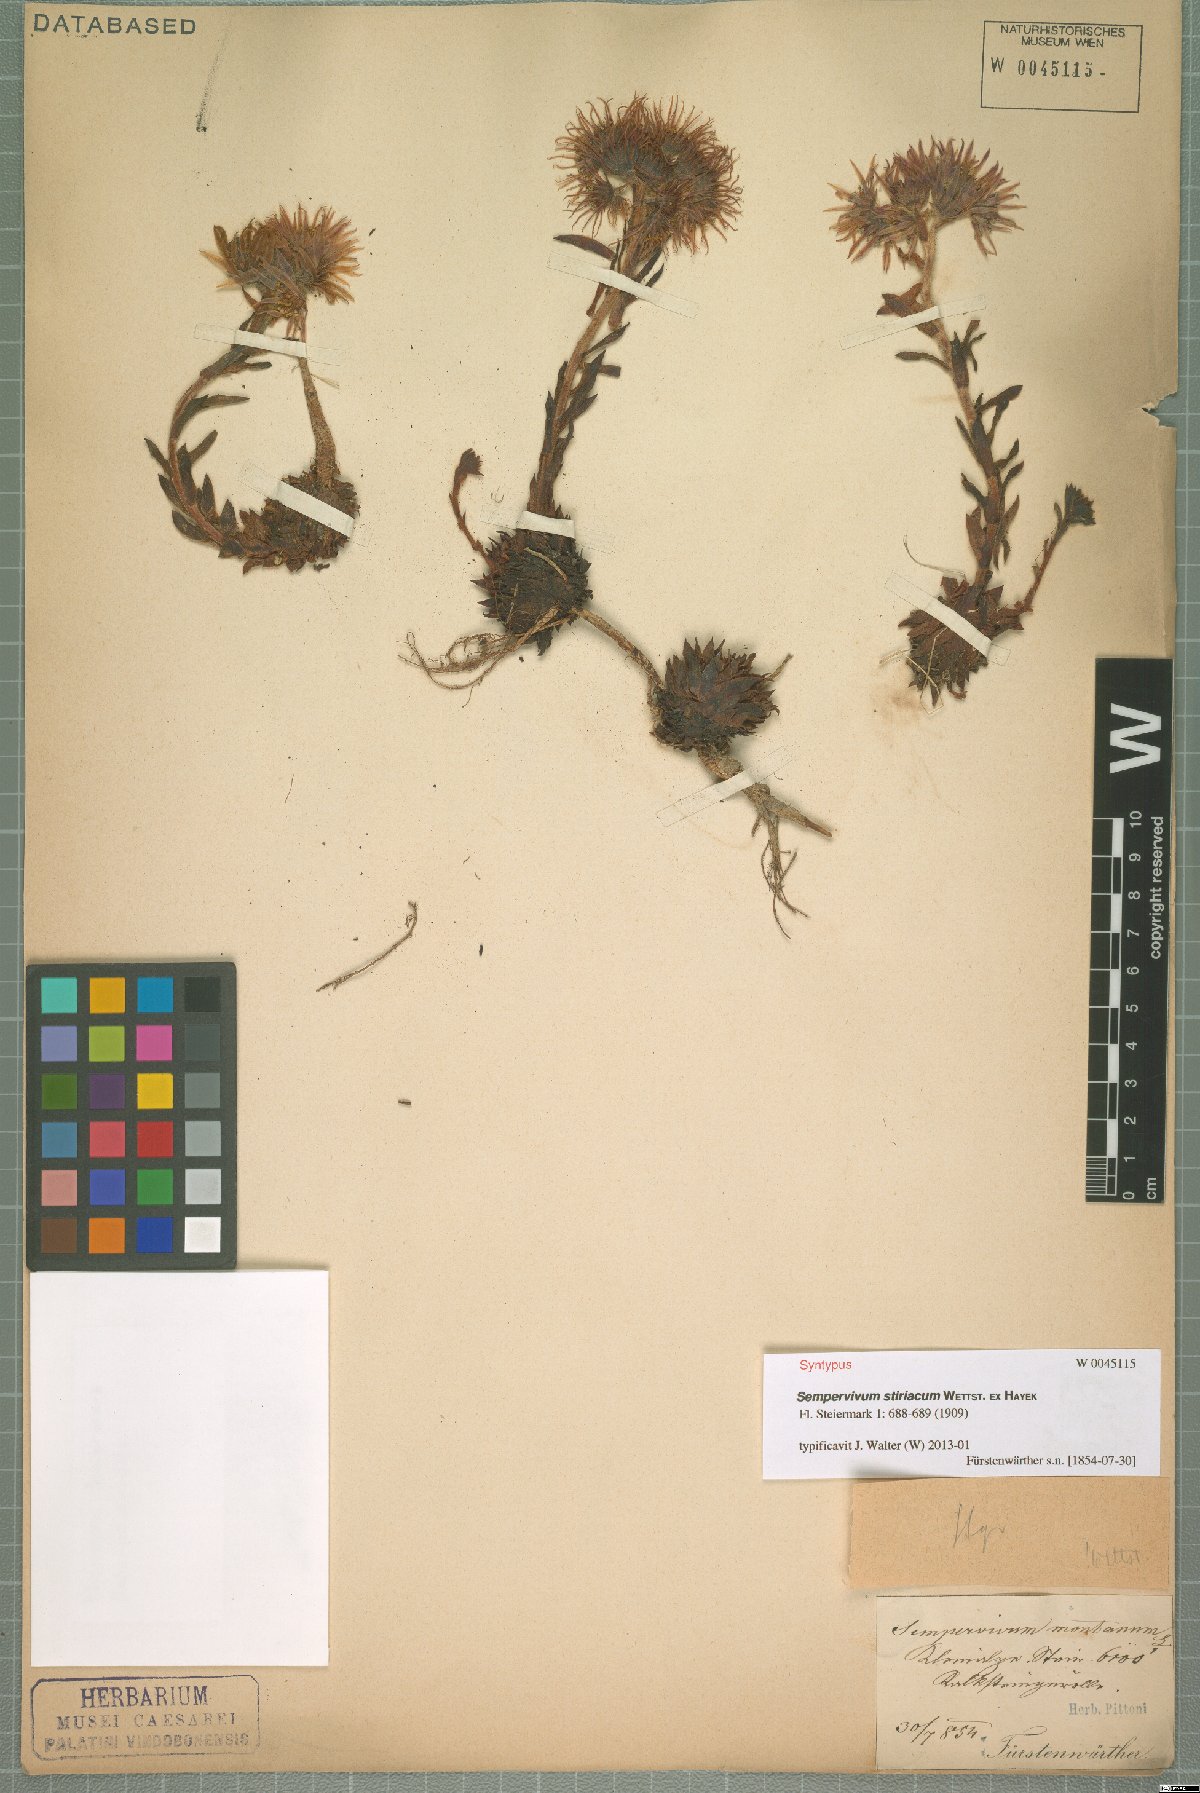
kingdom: Plantae
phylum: Tracheophyta
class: Magnoliopsida
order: Saxifragales
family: Crassulaceae
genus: Sempervivum
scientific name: Sempervivum montanum
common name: Mountain house-leek
